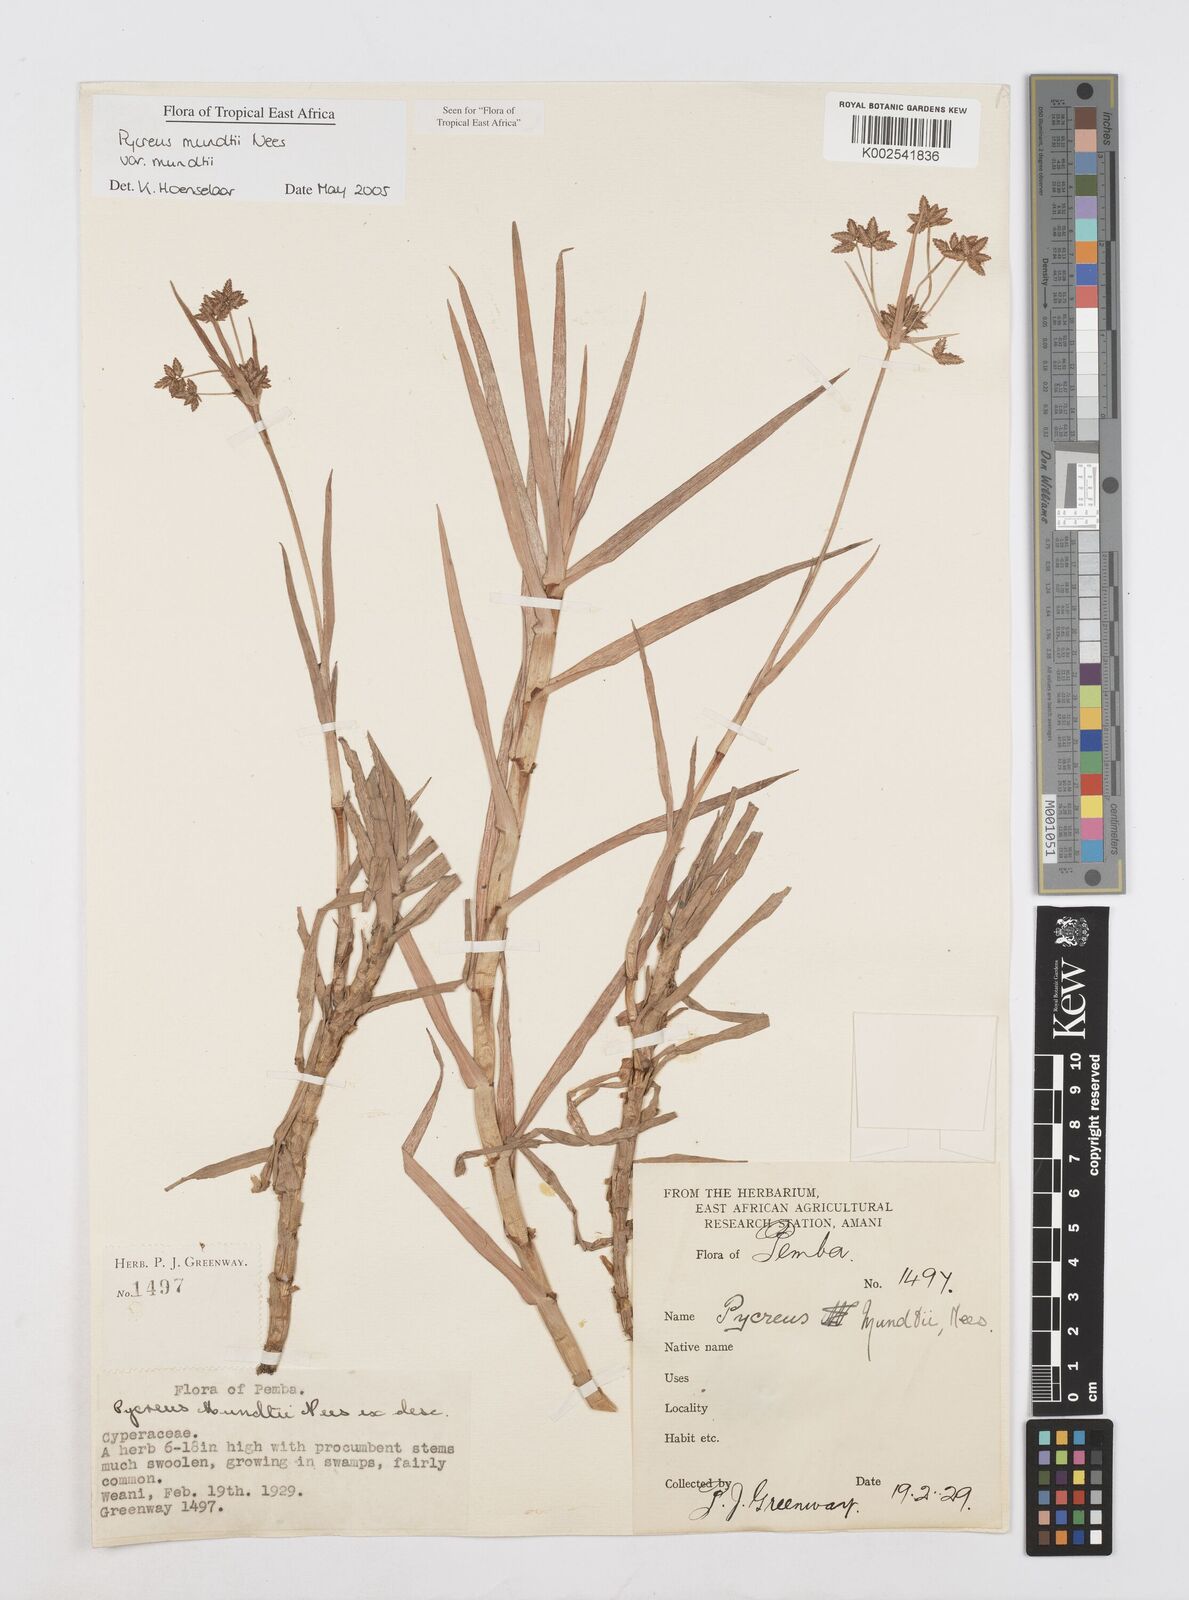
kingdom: Plantae
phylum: Tracheophyta
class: Liliopsida
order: Poales
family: Cyperaceae
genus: Cyperus
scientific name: Cyperus mundii
